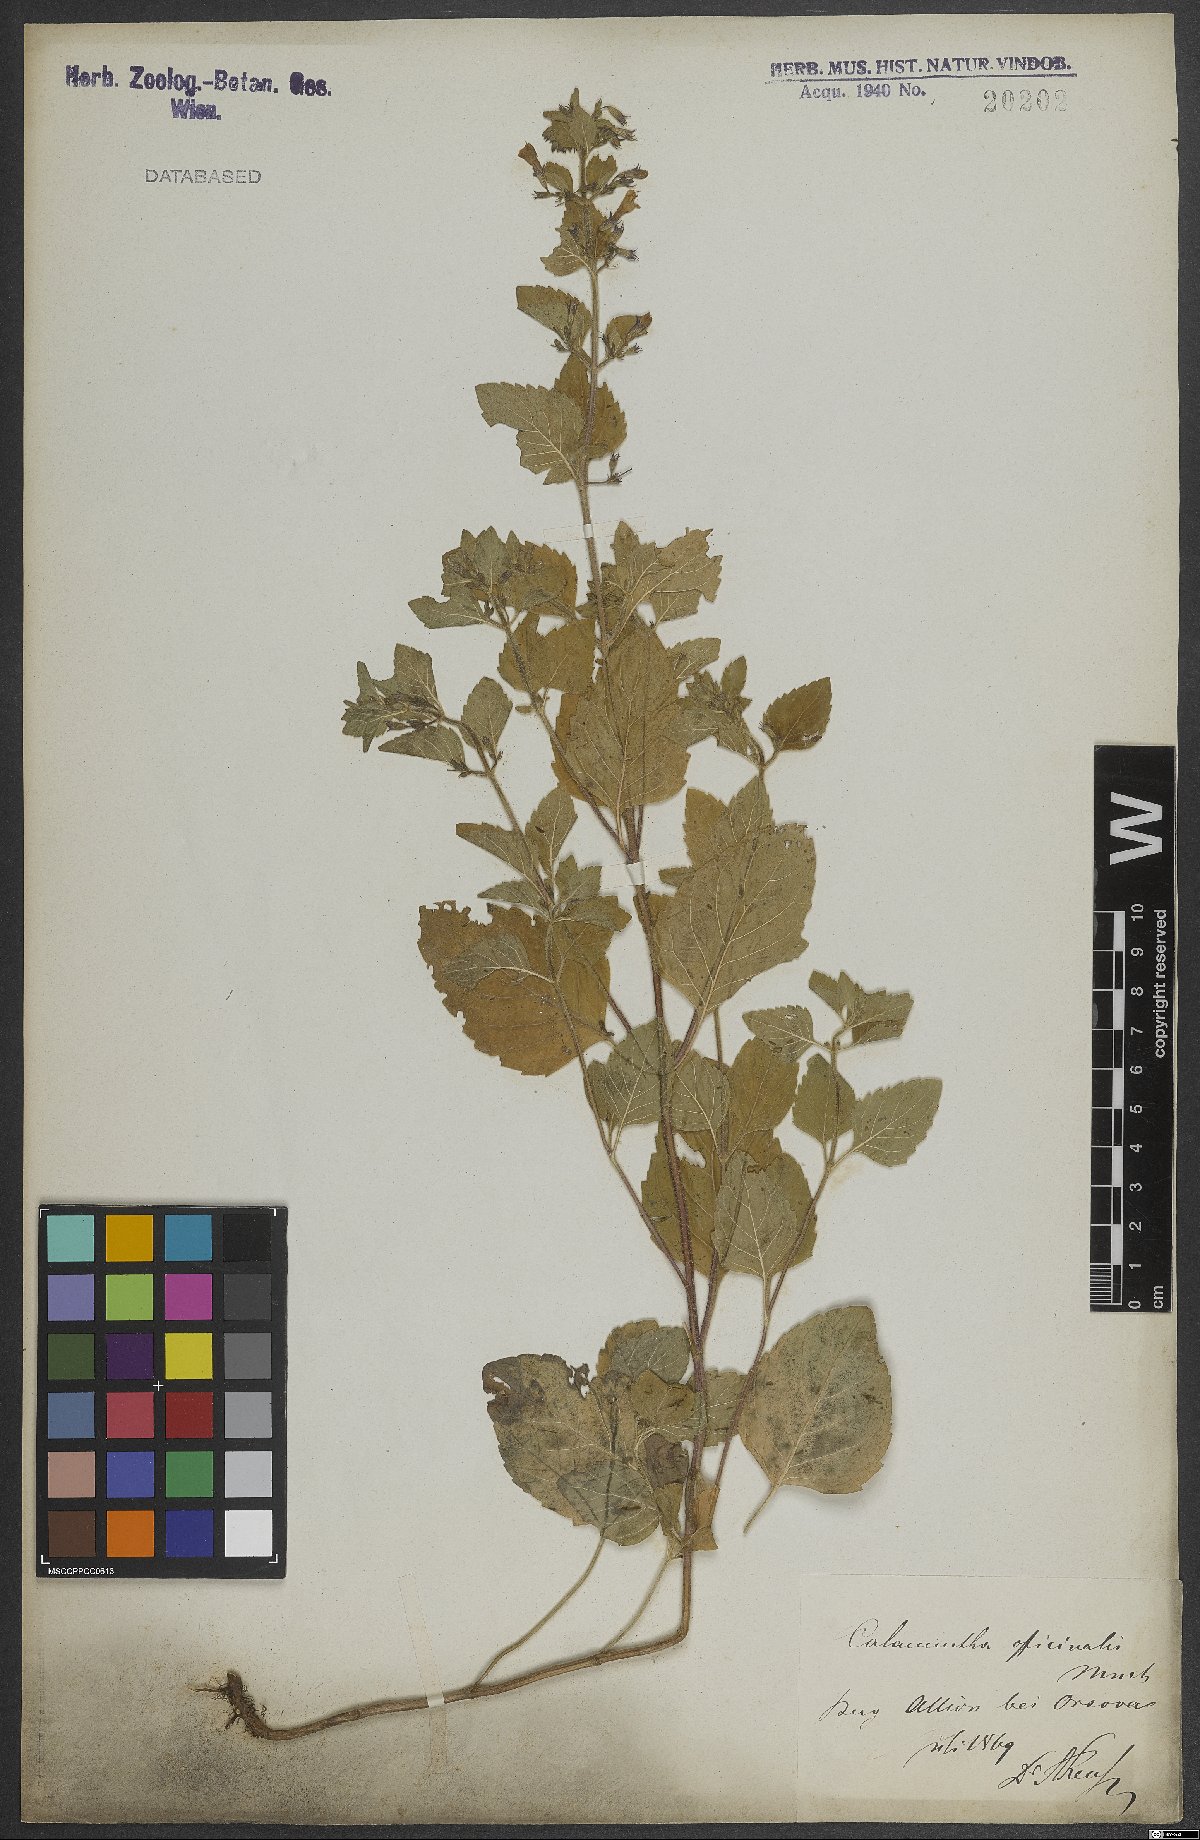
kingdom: Plantae
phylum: Tracheophyta
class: Magnoliopsida
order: Lamiales
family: Lamiaceae
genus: Clinopodium
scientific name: Clinopodium nepeta
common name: Lesser calamint
